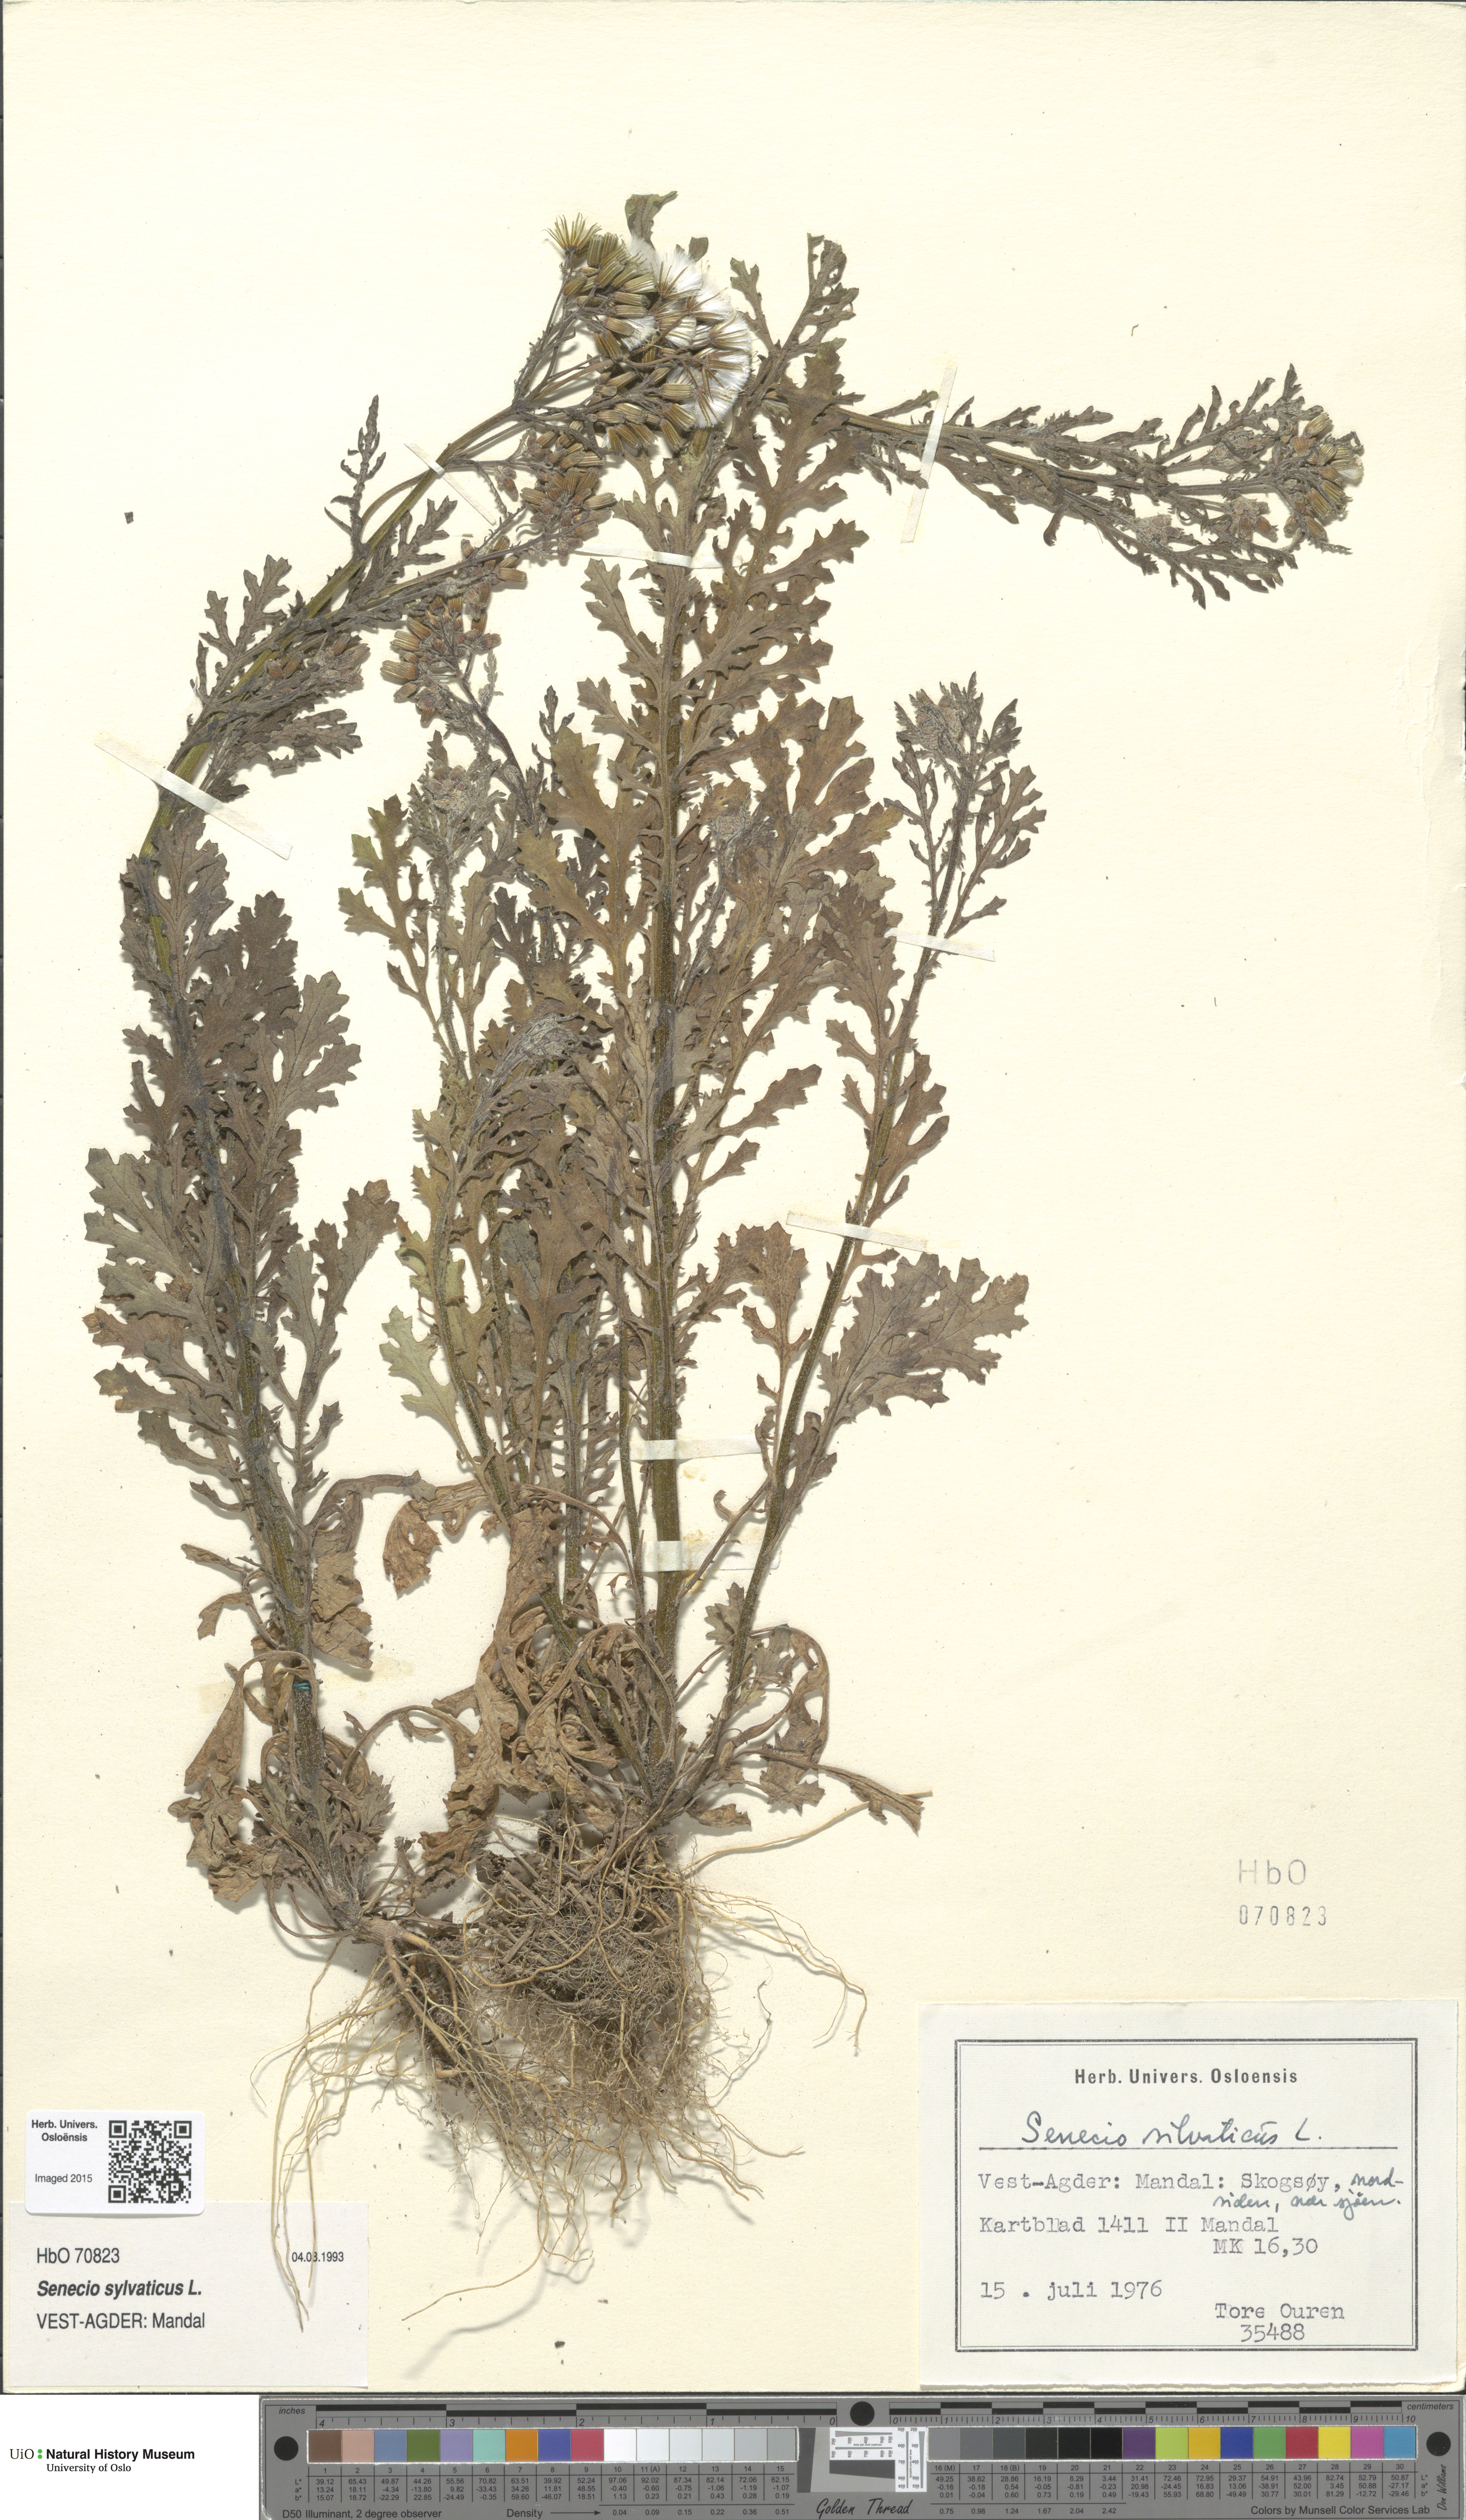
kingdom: Plantae
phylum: Tracheophyta
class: Magnoliopsida
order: Asterales
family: Asteraceae
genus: Senecio
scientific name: Senecio sylvaticus
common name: Woodland ragwort
